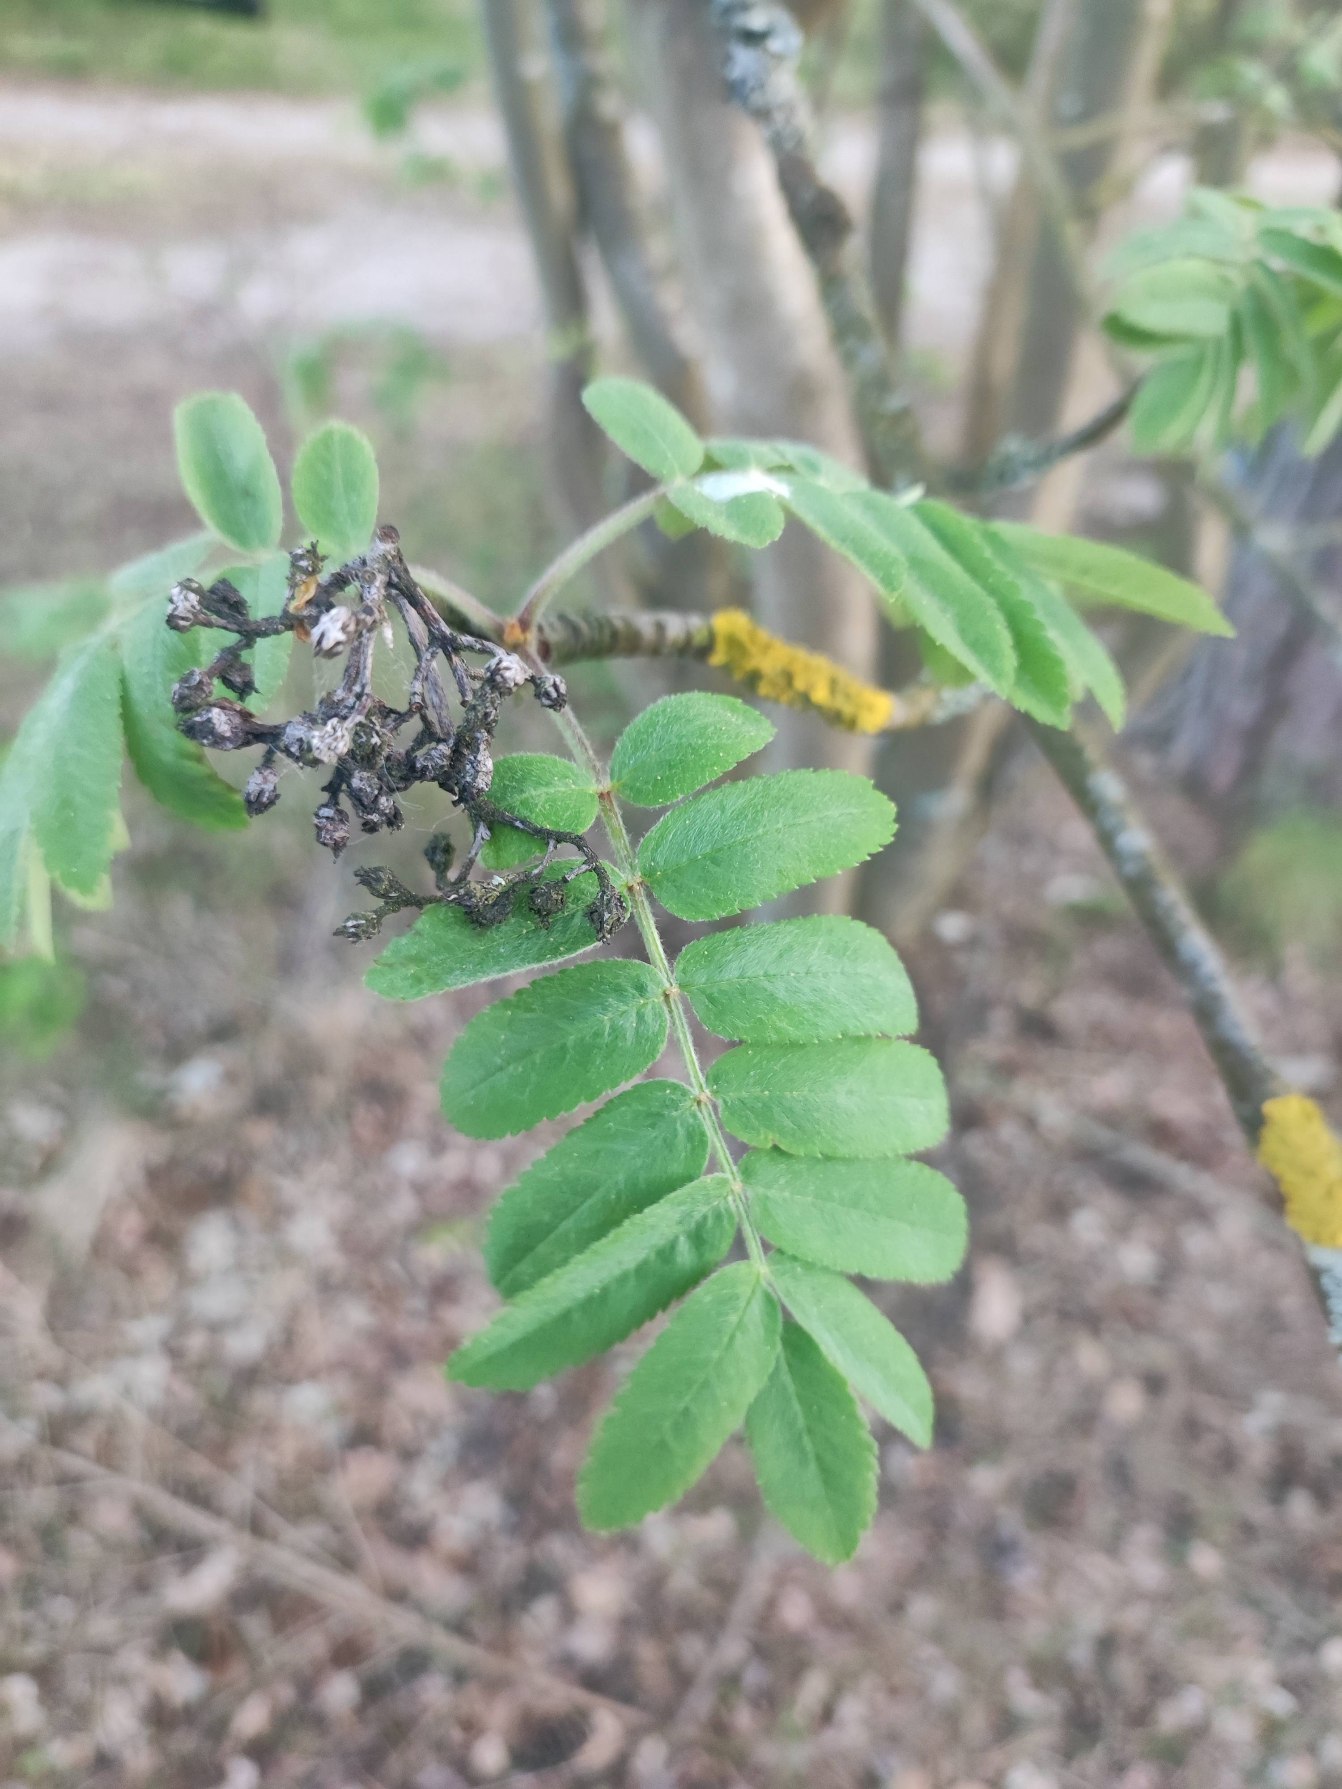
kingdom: Plantae
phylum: Tracheophyta
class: Magnoliopsida
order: Rosales
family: Rosaceae
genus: Sorbus
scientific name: Sorbus aucuparia
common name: Almindelig røn
